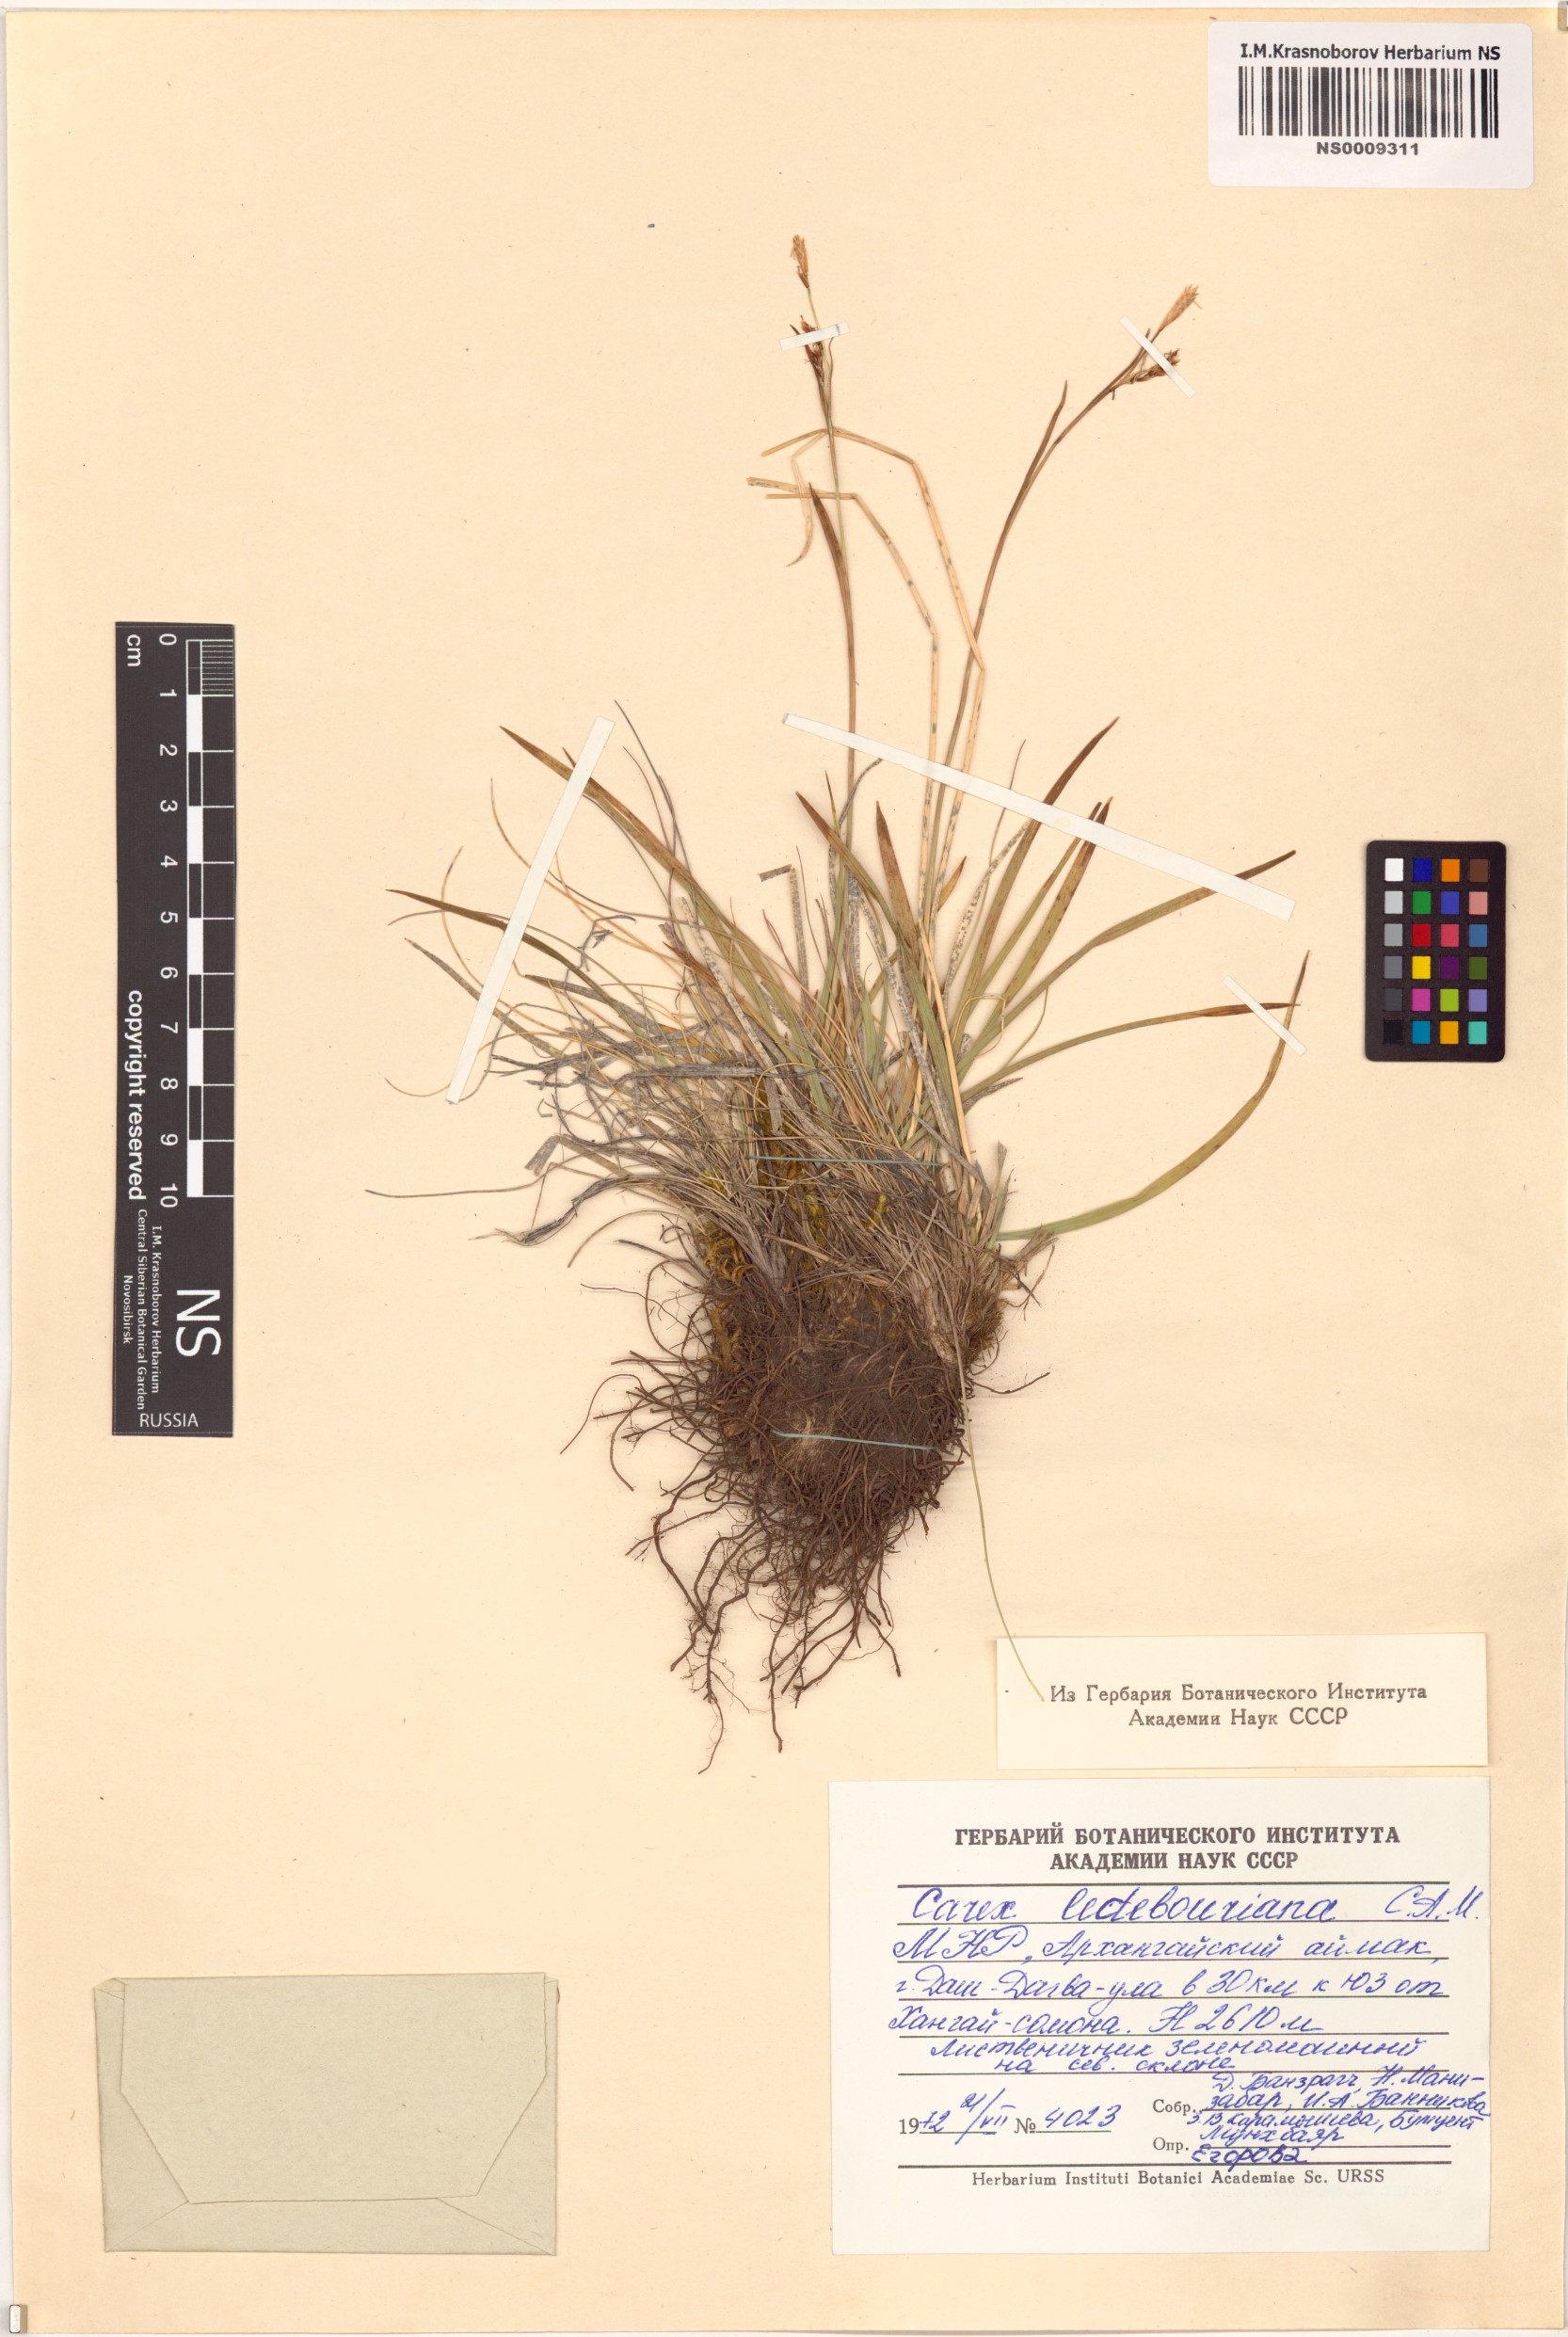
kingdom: Plantae
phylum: Tracheophyta
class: Liliopsida
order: Poales
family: Cyperaceae
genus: Carex
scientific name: Carex ledebouriana
